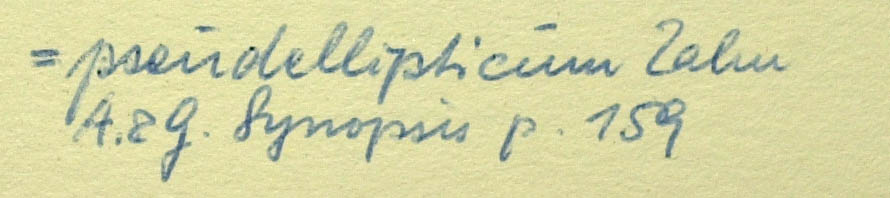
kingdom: Plantae
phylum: Tracheophyta
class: Magnoliopsida
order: Asterales
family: Asteraceae
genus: Hieracium
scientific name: Hieracium pseudellipticum
